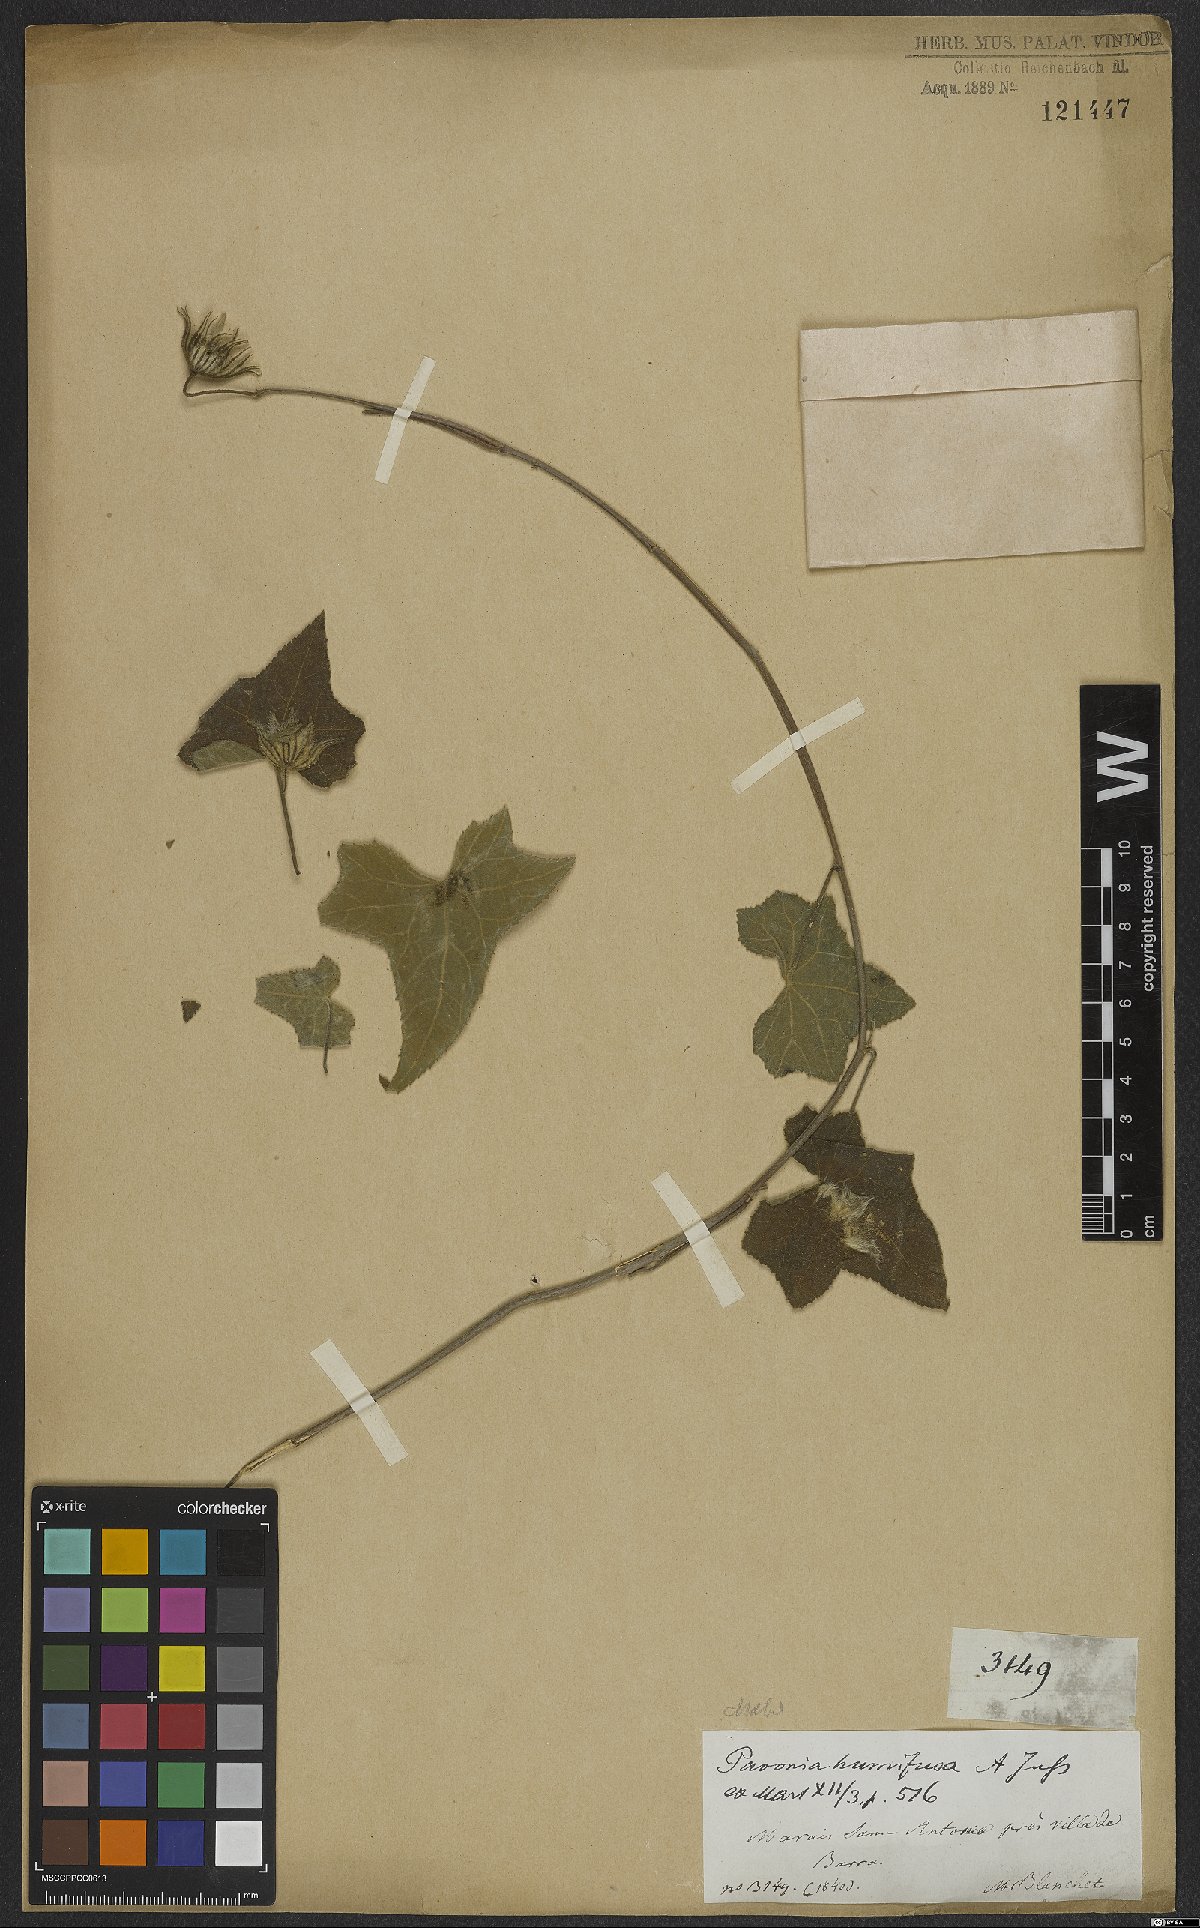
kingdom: Plantae
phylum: Tracheophyta
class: Magnoliopsida
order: Malvales
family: Malvaceae
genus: Pavonia
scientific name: Pavonia humifusa
